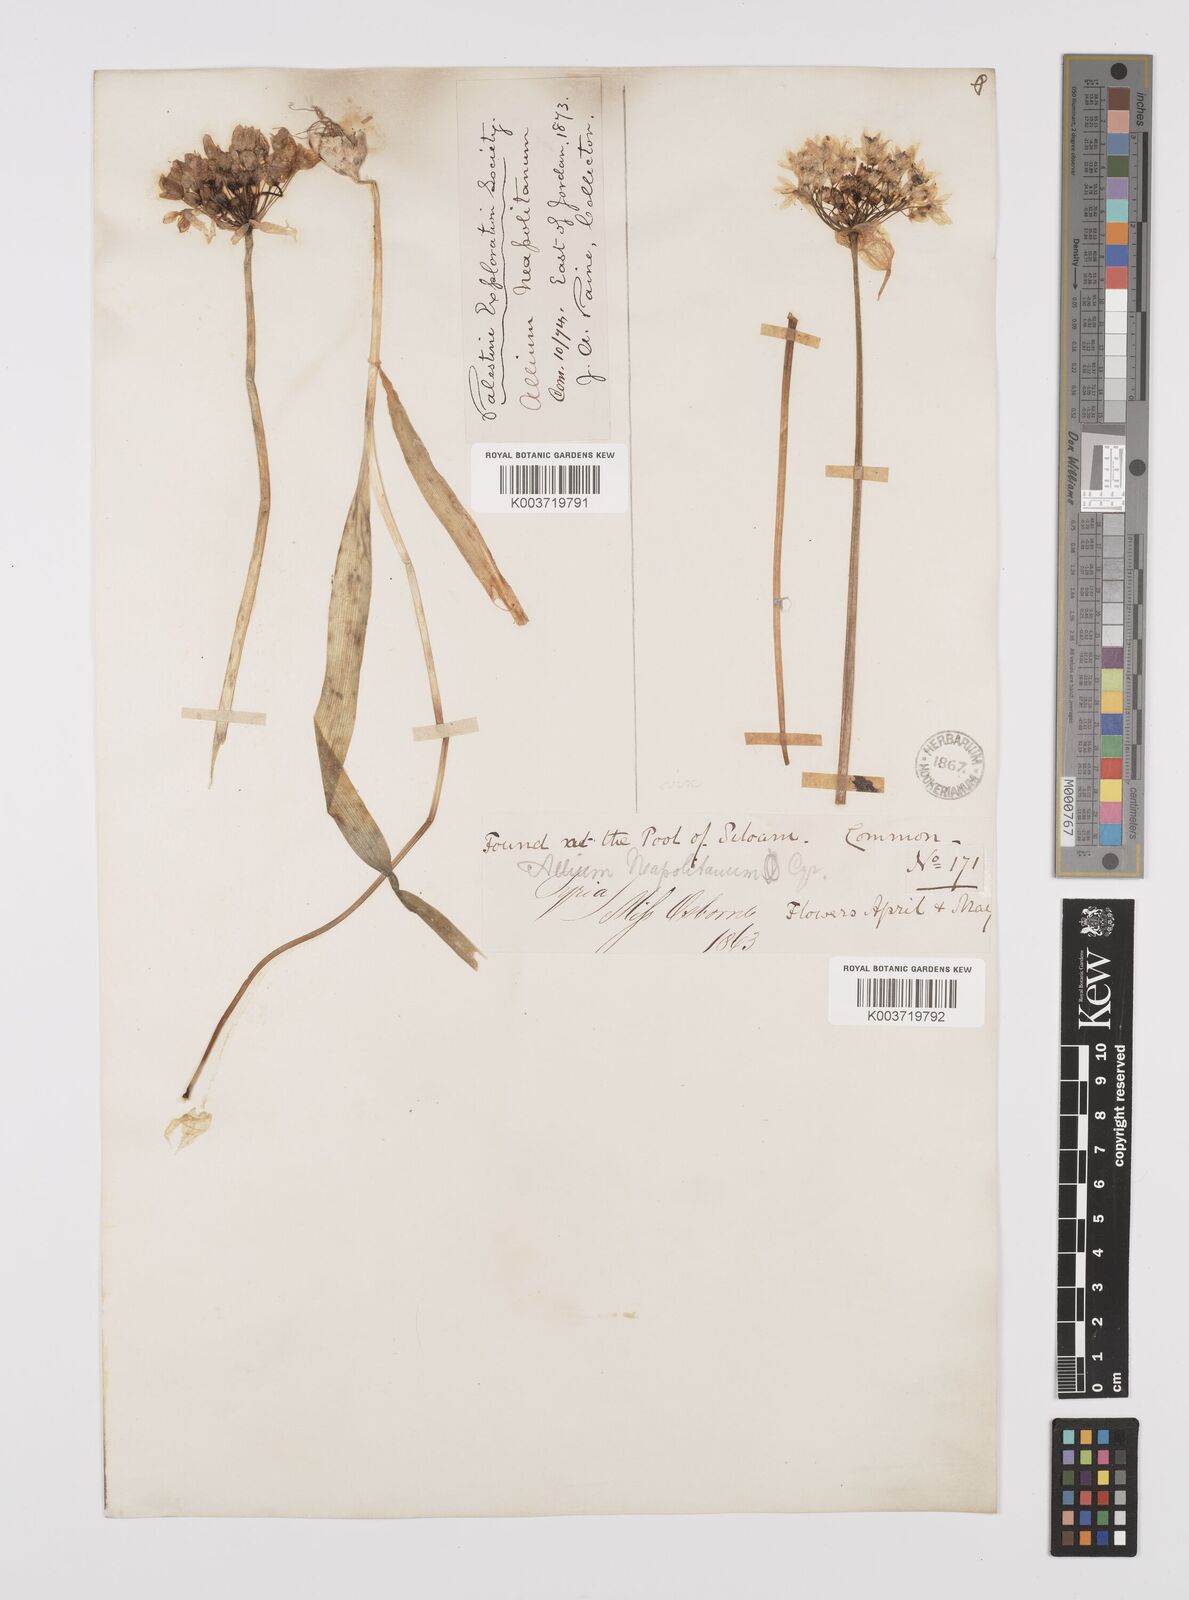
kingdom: Plantae
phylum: Tracheophyta
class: Liliopsida
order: Asparagales
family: Amaryllidaceae
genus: Allium
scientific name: Allium neapolitanum
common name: Neapolitan garlic
